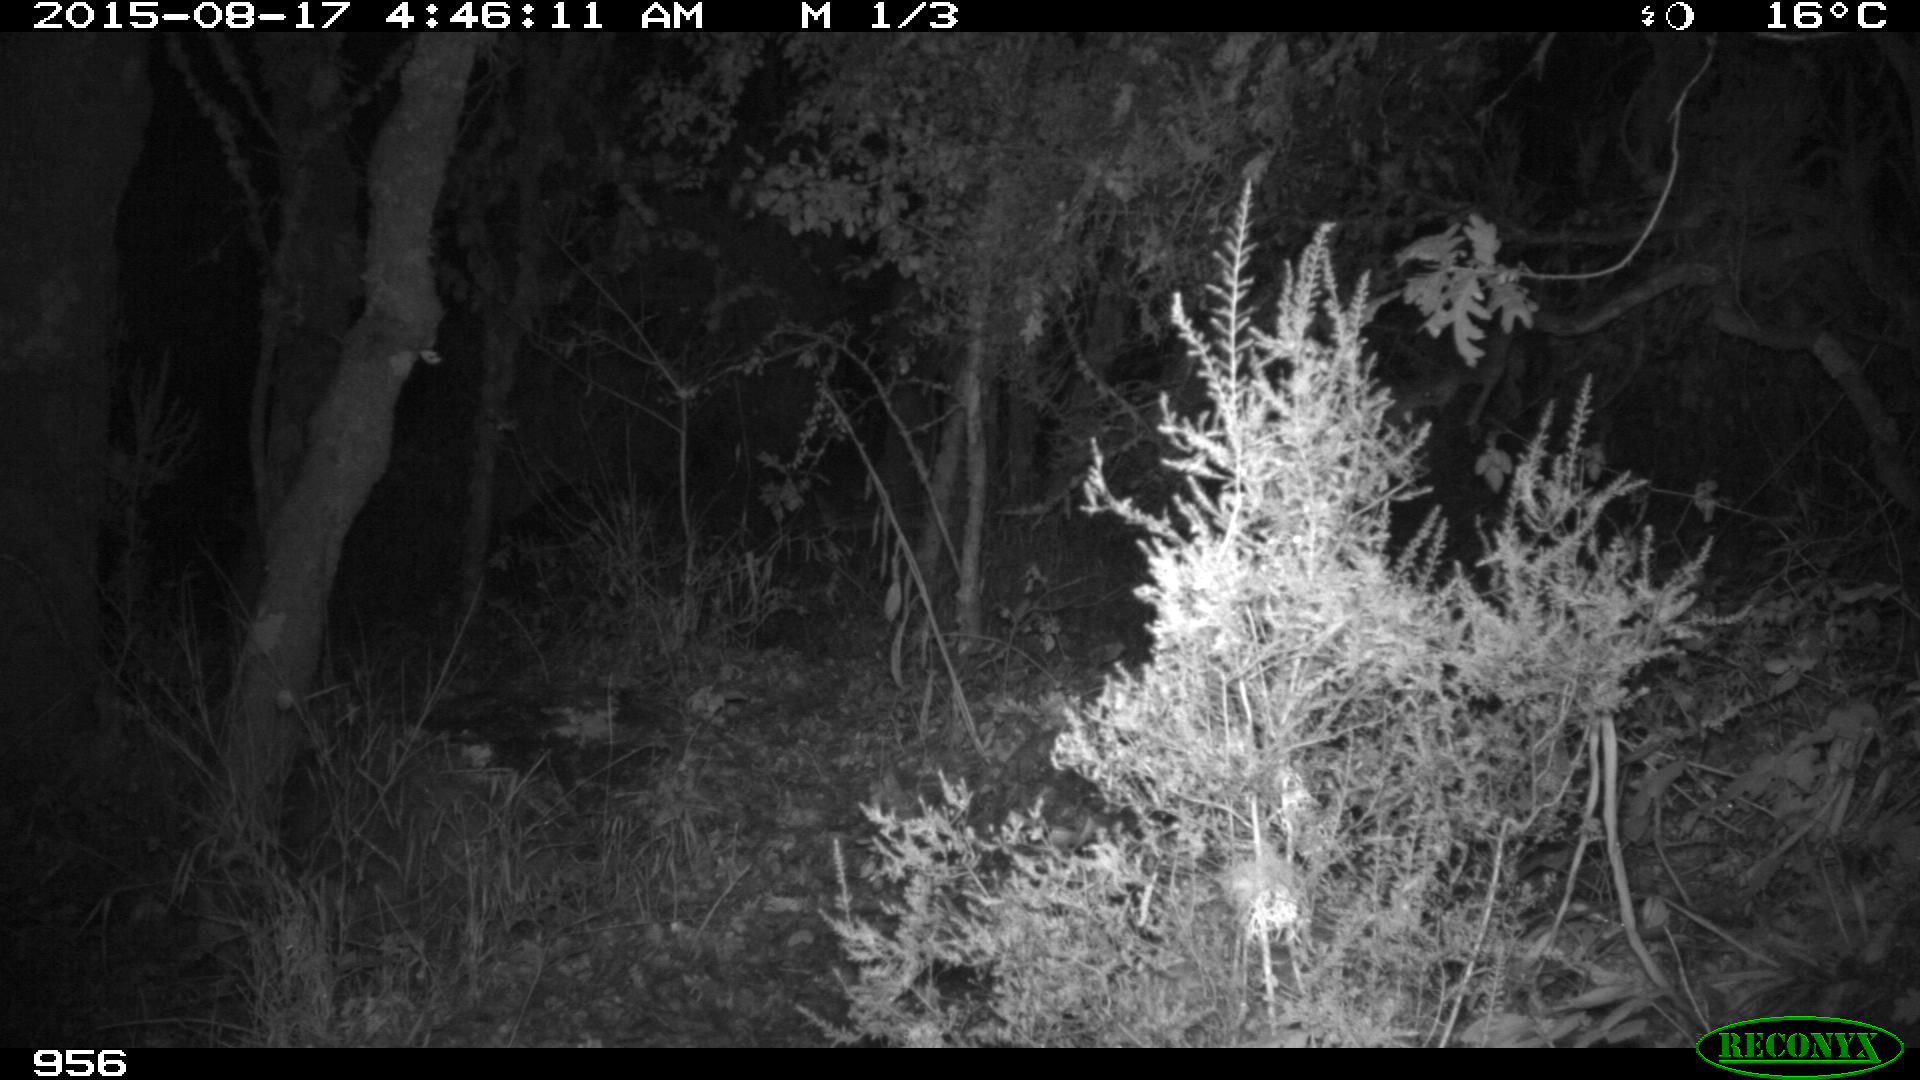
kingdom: Animalia
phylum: Chordata
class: Mammalia
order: Artiodactyla
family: Suidae
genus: Sus
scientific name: Sus scrofa
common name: Wild boar
